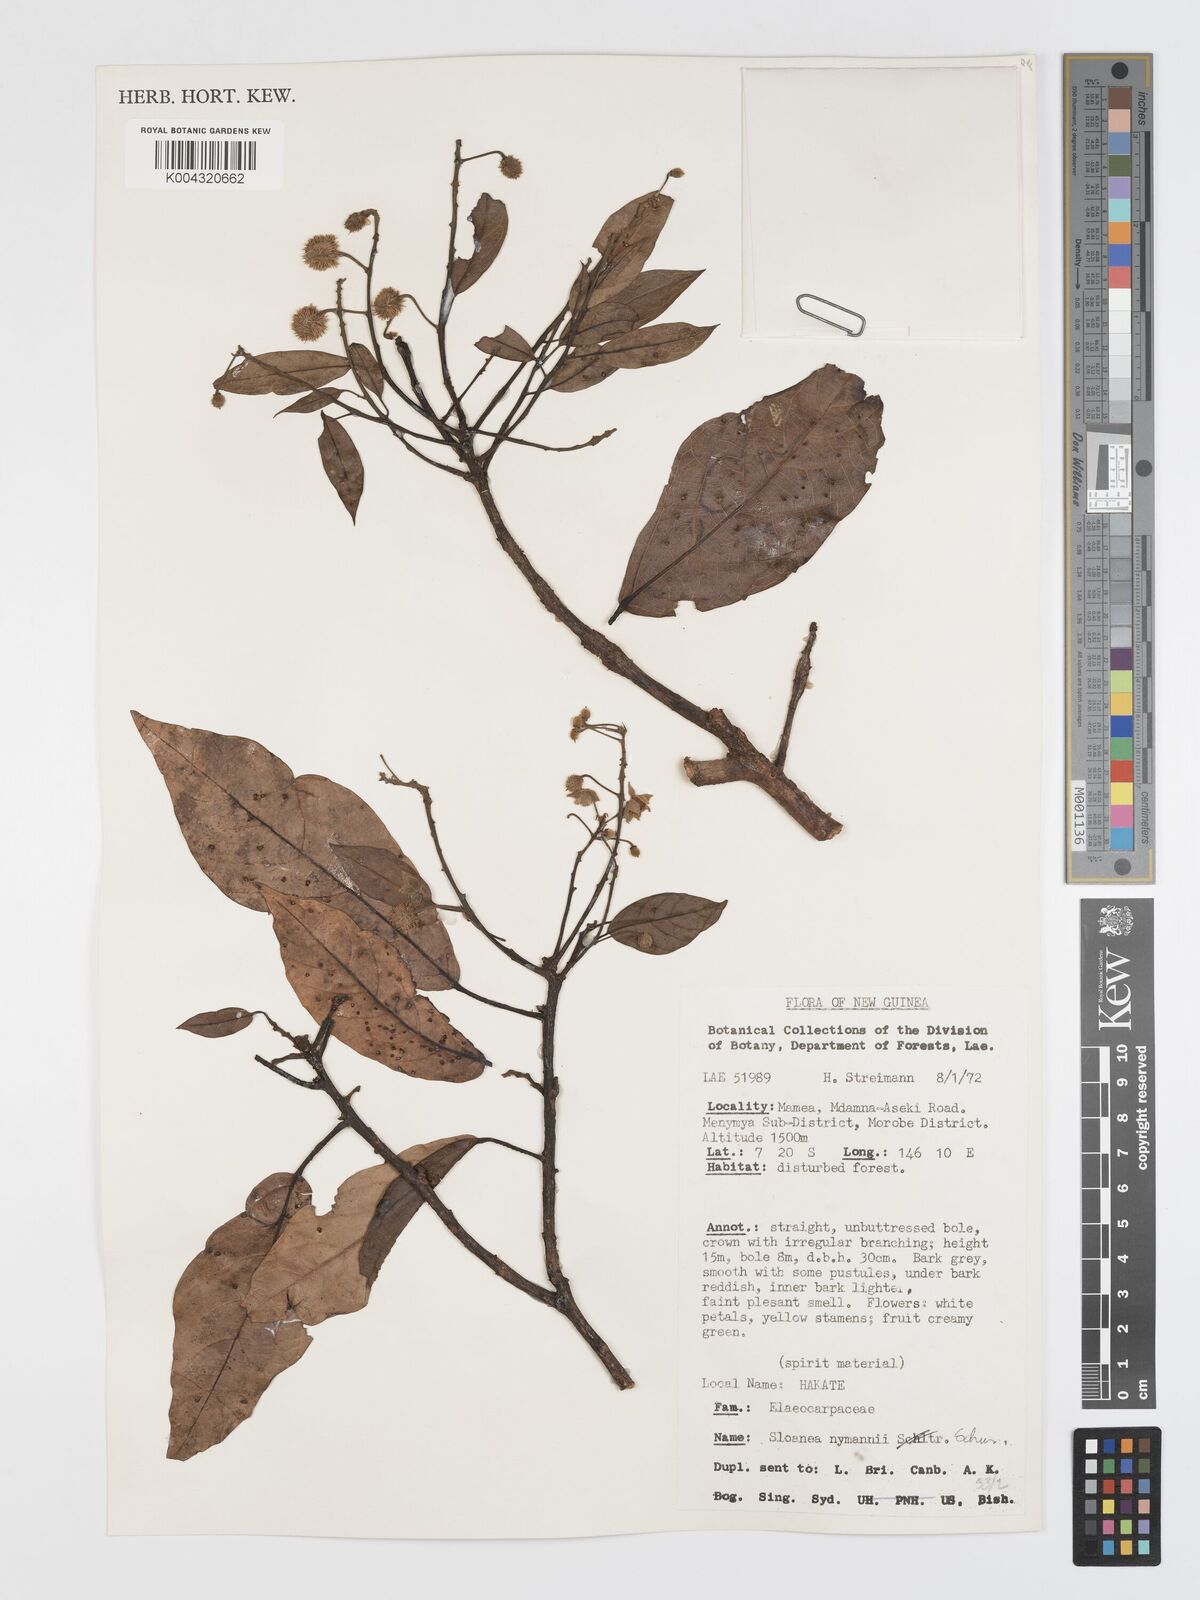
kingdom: Plantae
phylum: Tracheophyta
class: Magnoliopsida
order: Oxalidales
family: Elaeocarpaceae
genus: Sloanea
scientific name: Sloanea nymanii
